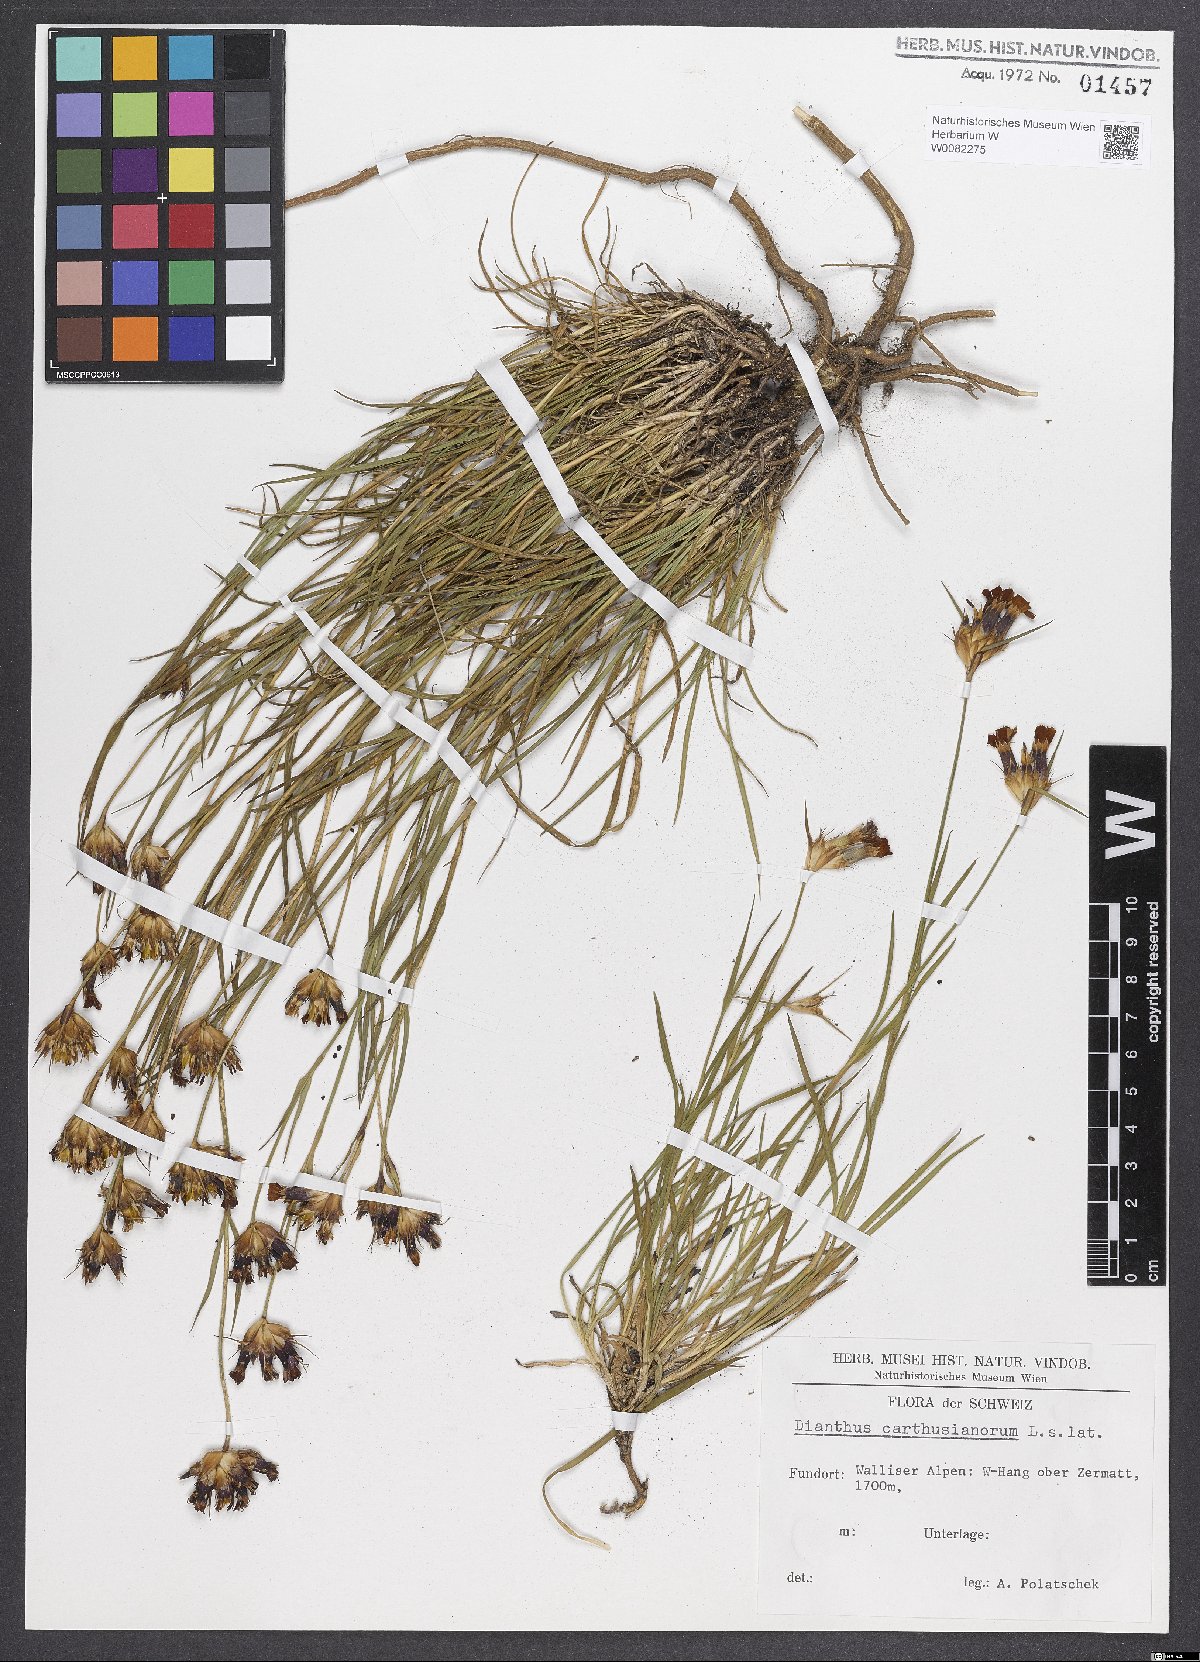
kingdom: Plantae
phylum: Tracheophyta
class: Magnoliopsida
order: Caryophyllales
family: Caryophyllaceae
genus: Dianthus
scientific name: Dianthus carthusianorum
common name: Carthusian pink
